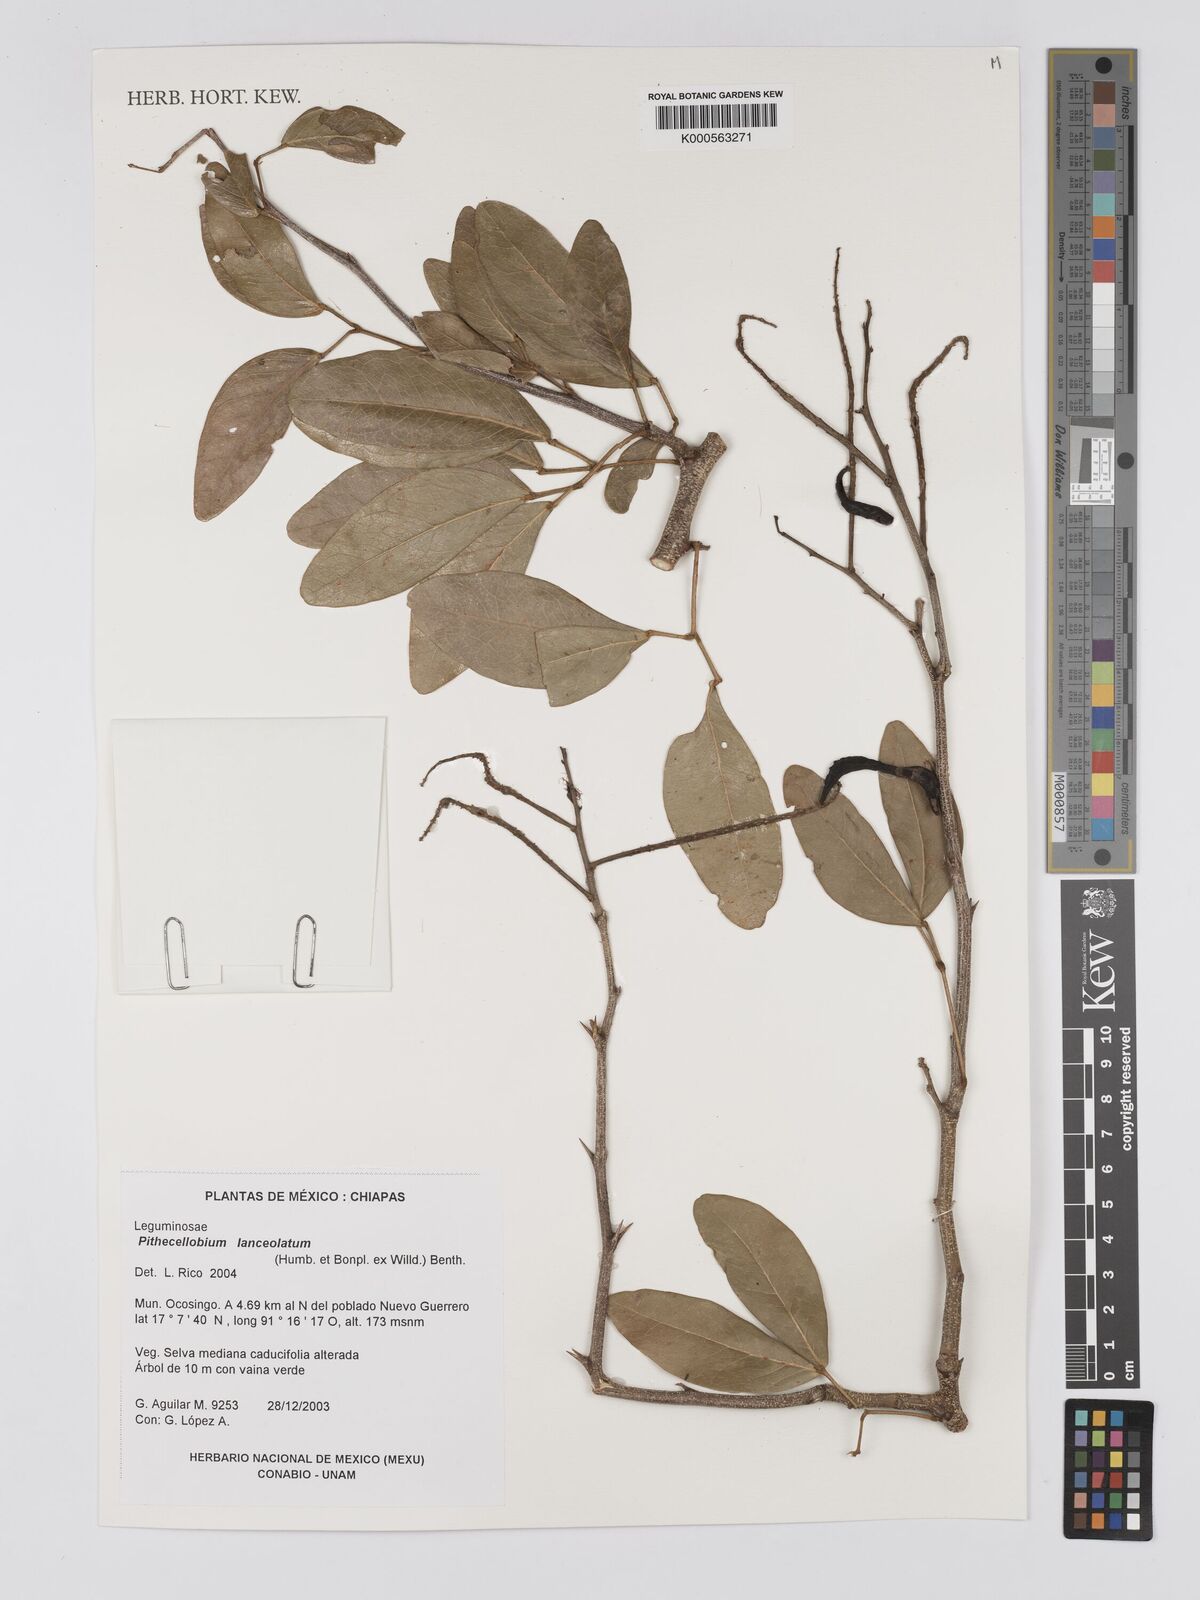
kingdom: Plantae
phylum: Tracheophyta
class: Magnoliopsida
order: Fabales
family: Fabaceae
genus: Pithecellobium
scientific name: Pithecellobium lanceolatum
